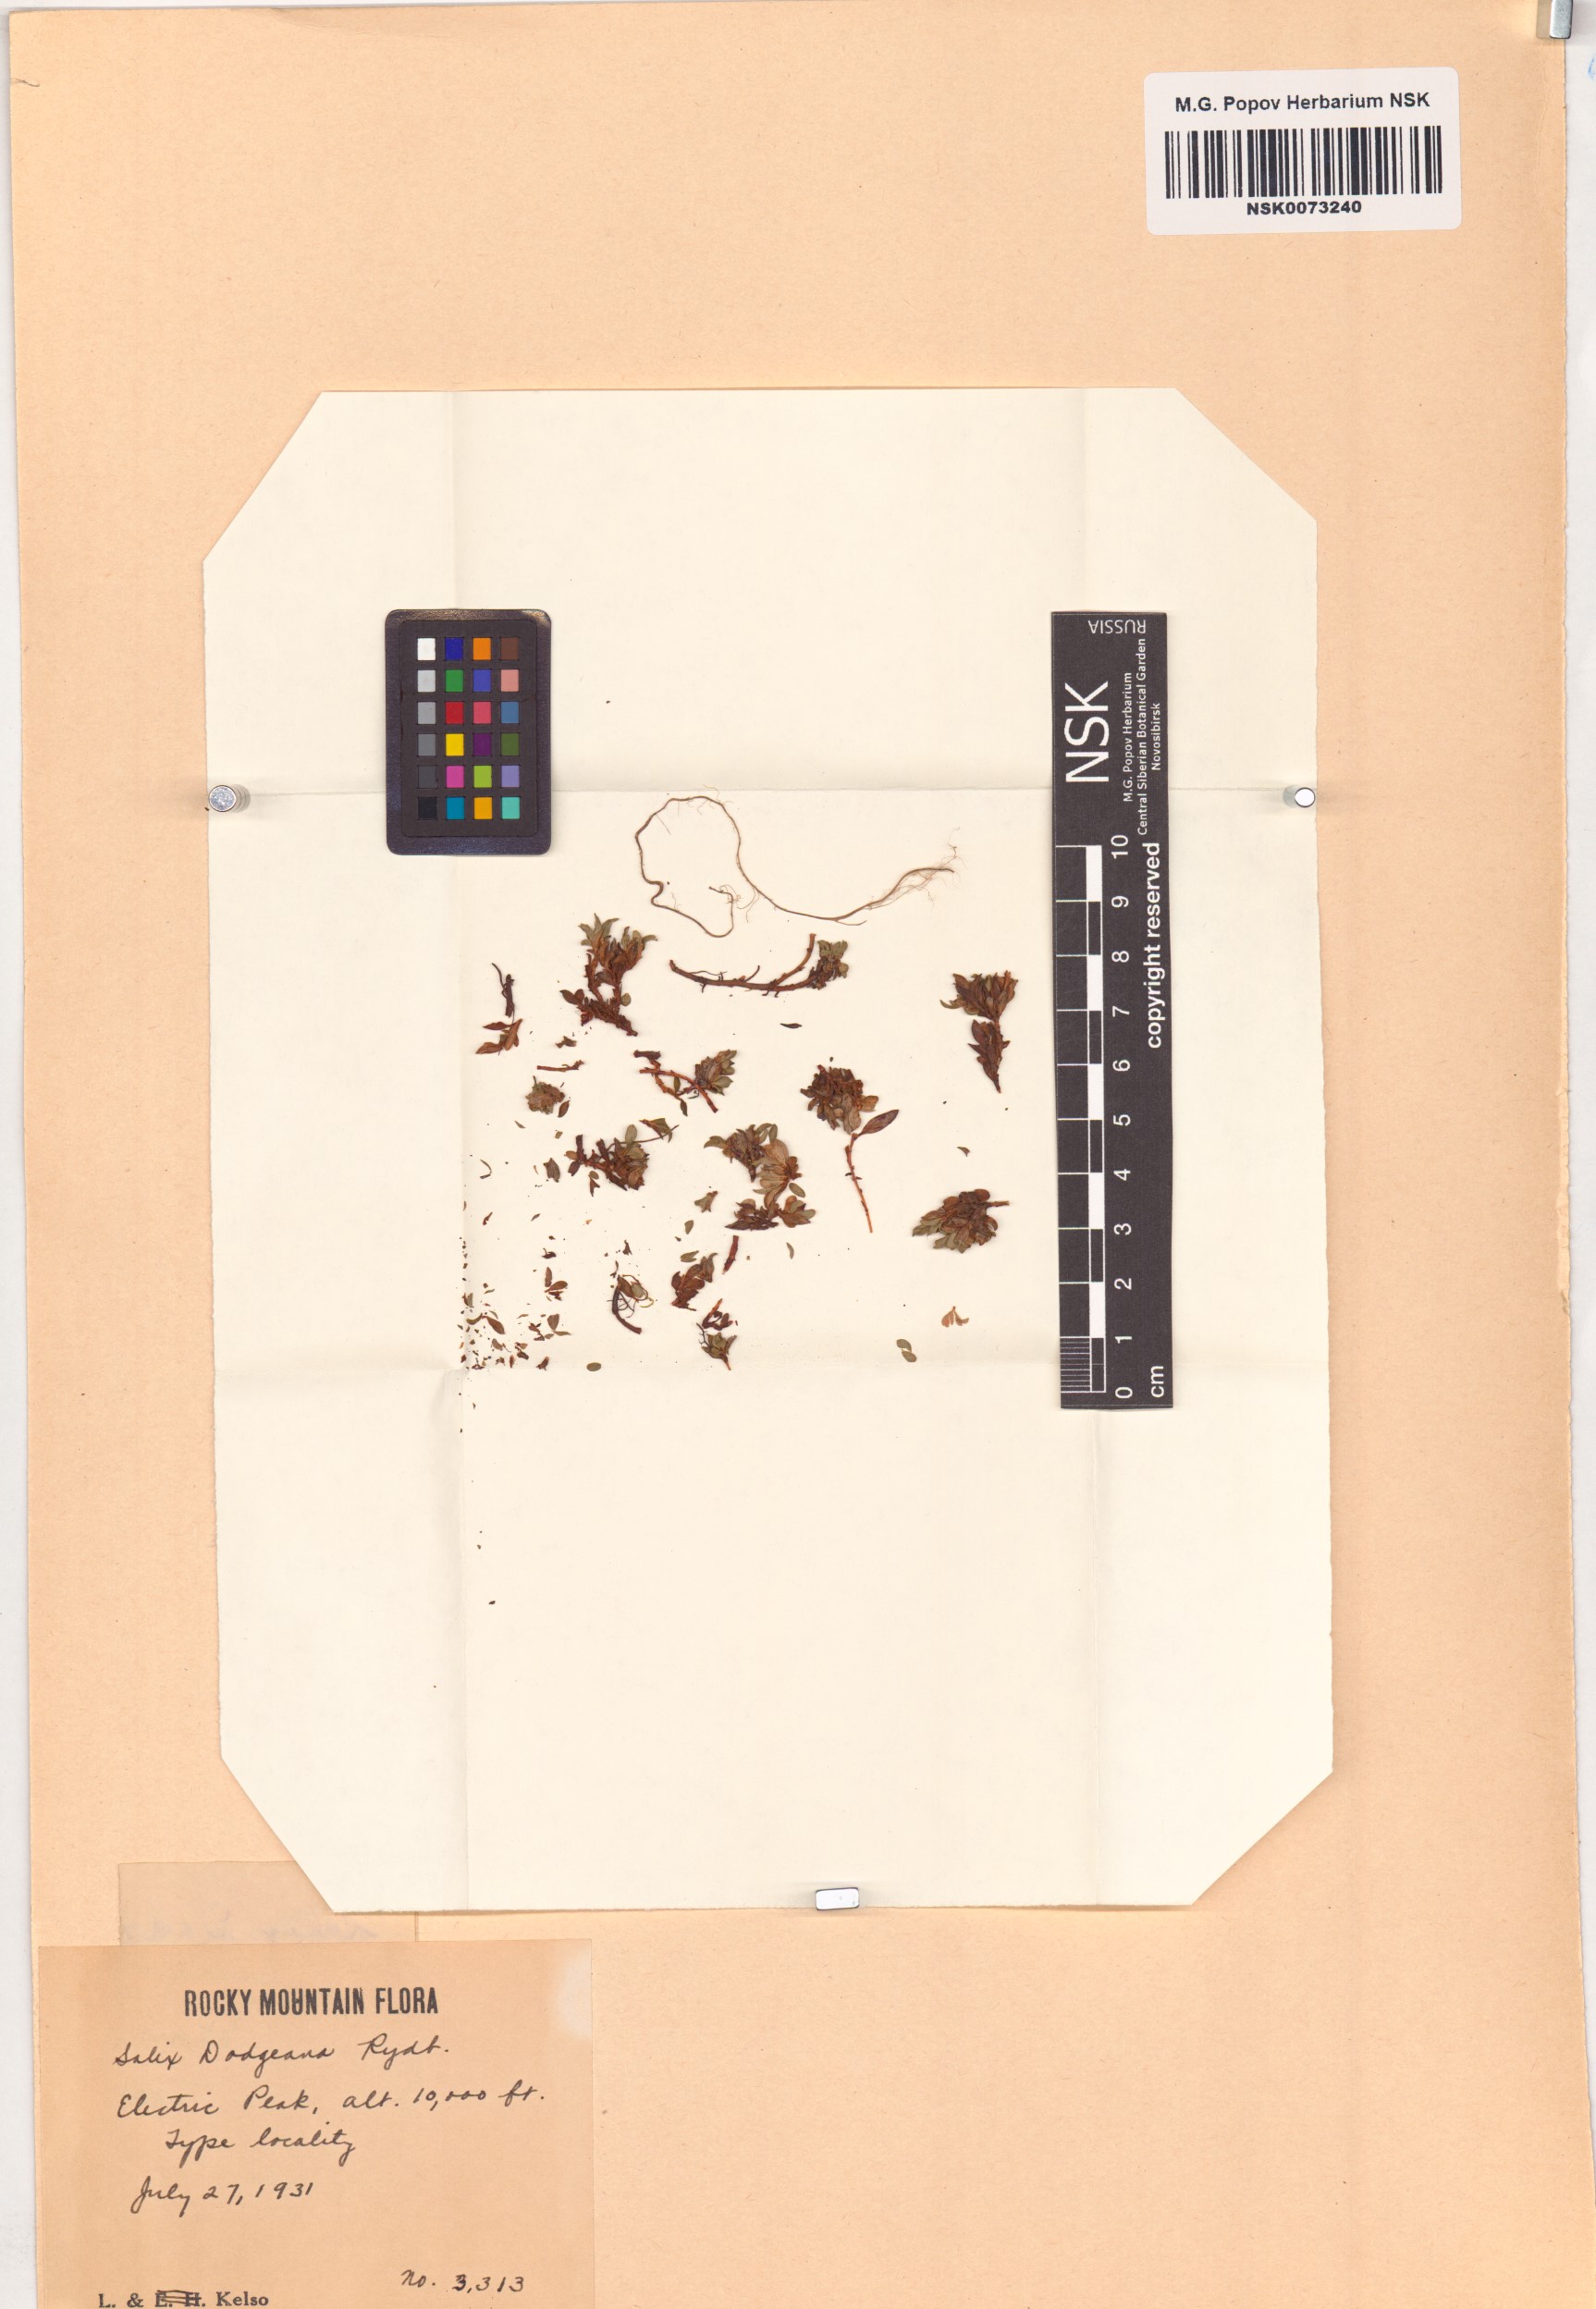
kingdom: Plantae
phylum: Tracheophyta
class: Magnoliopsida
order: Malpighiales
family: Salicaceae
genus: Salix
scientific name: Salix rotundifolia
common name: Least willow
